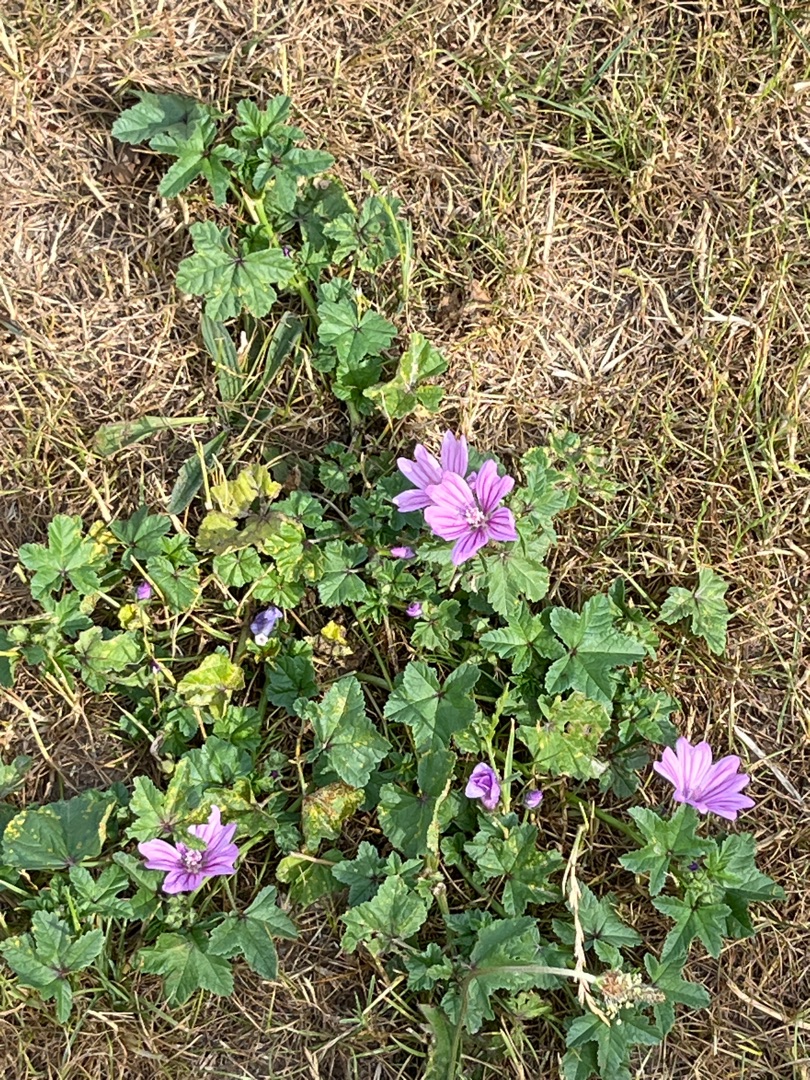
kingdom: Plantae
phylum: Tracheophyta
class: Magnoliopsida
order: Malvales
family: Malvaceae
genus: Malva
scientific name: Malva sylvestris
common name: Almindelig katost
